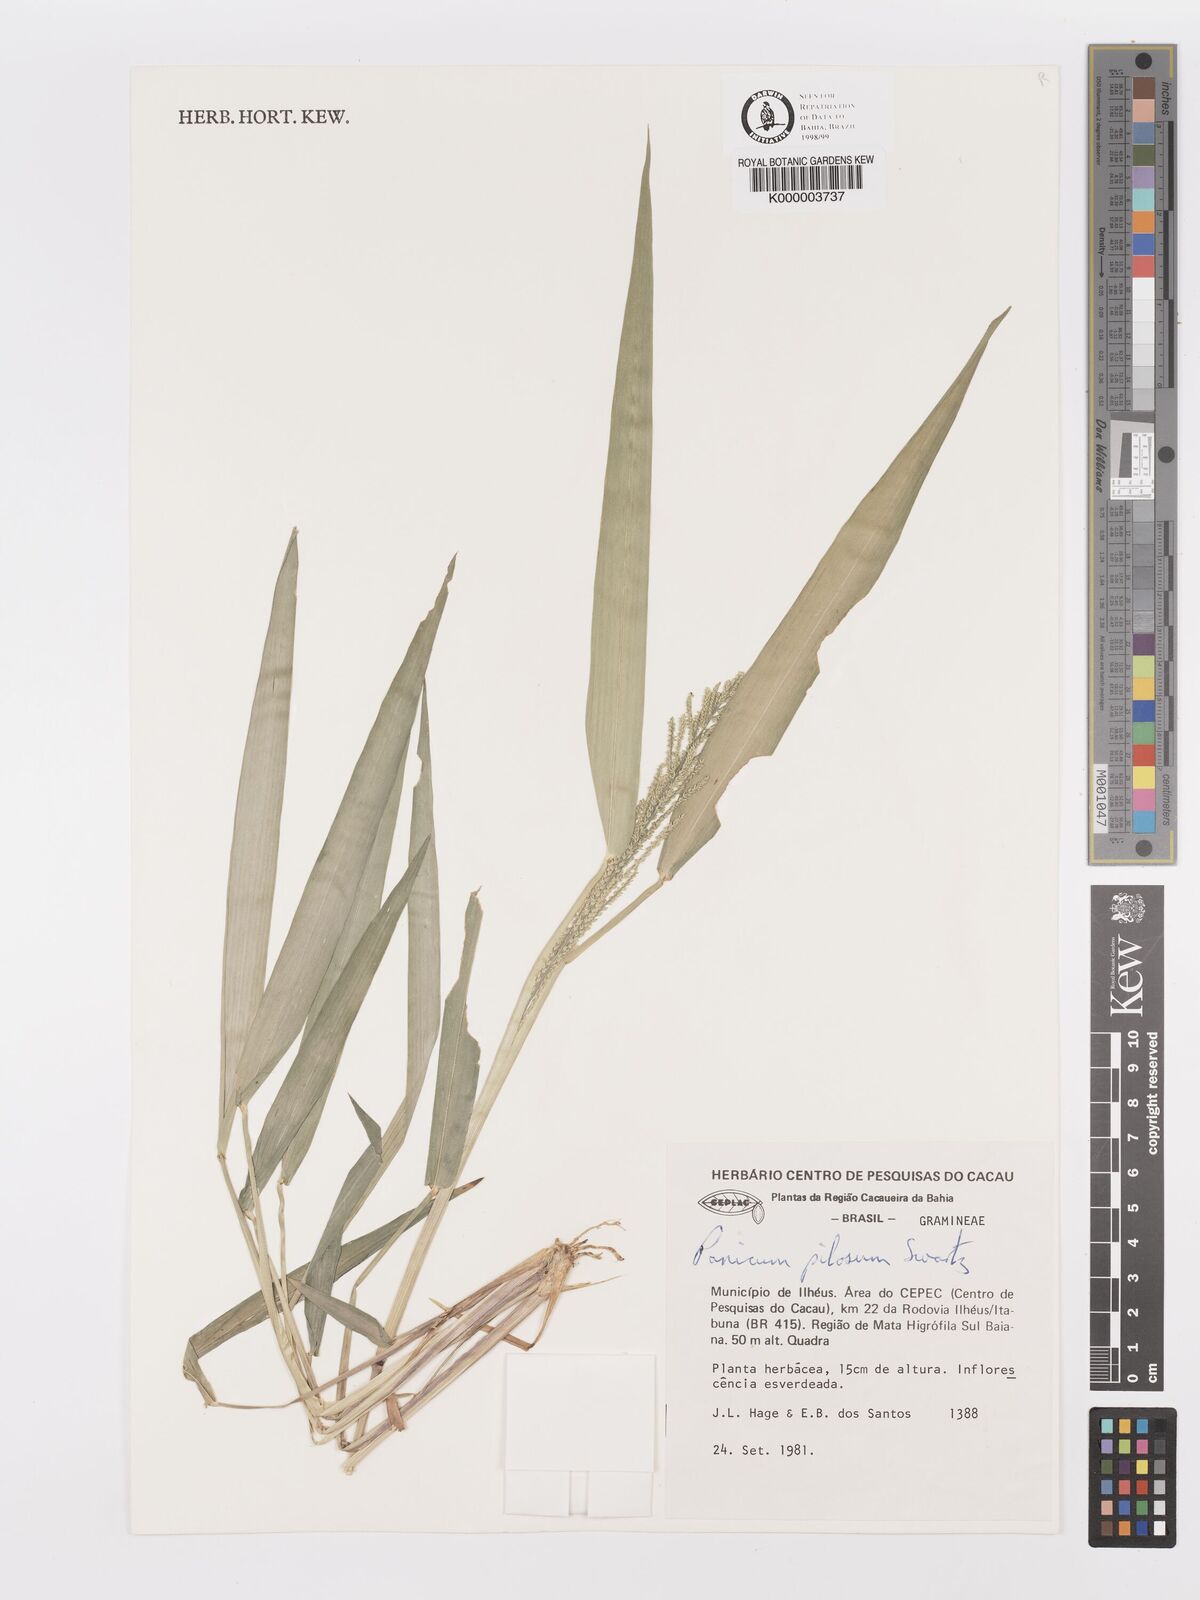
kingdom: Plantae
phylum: Tracheophyta
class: Liliopsida
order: Poales
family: Poaceae
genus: Rugoloa
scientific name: Rugoloa pilosa
